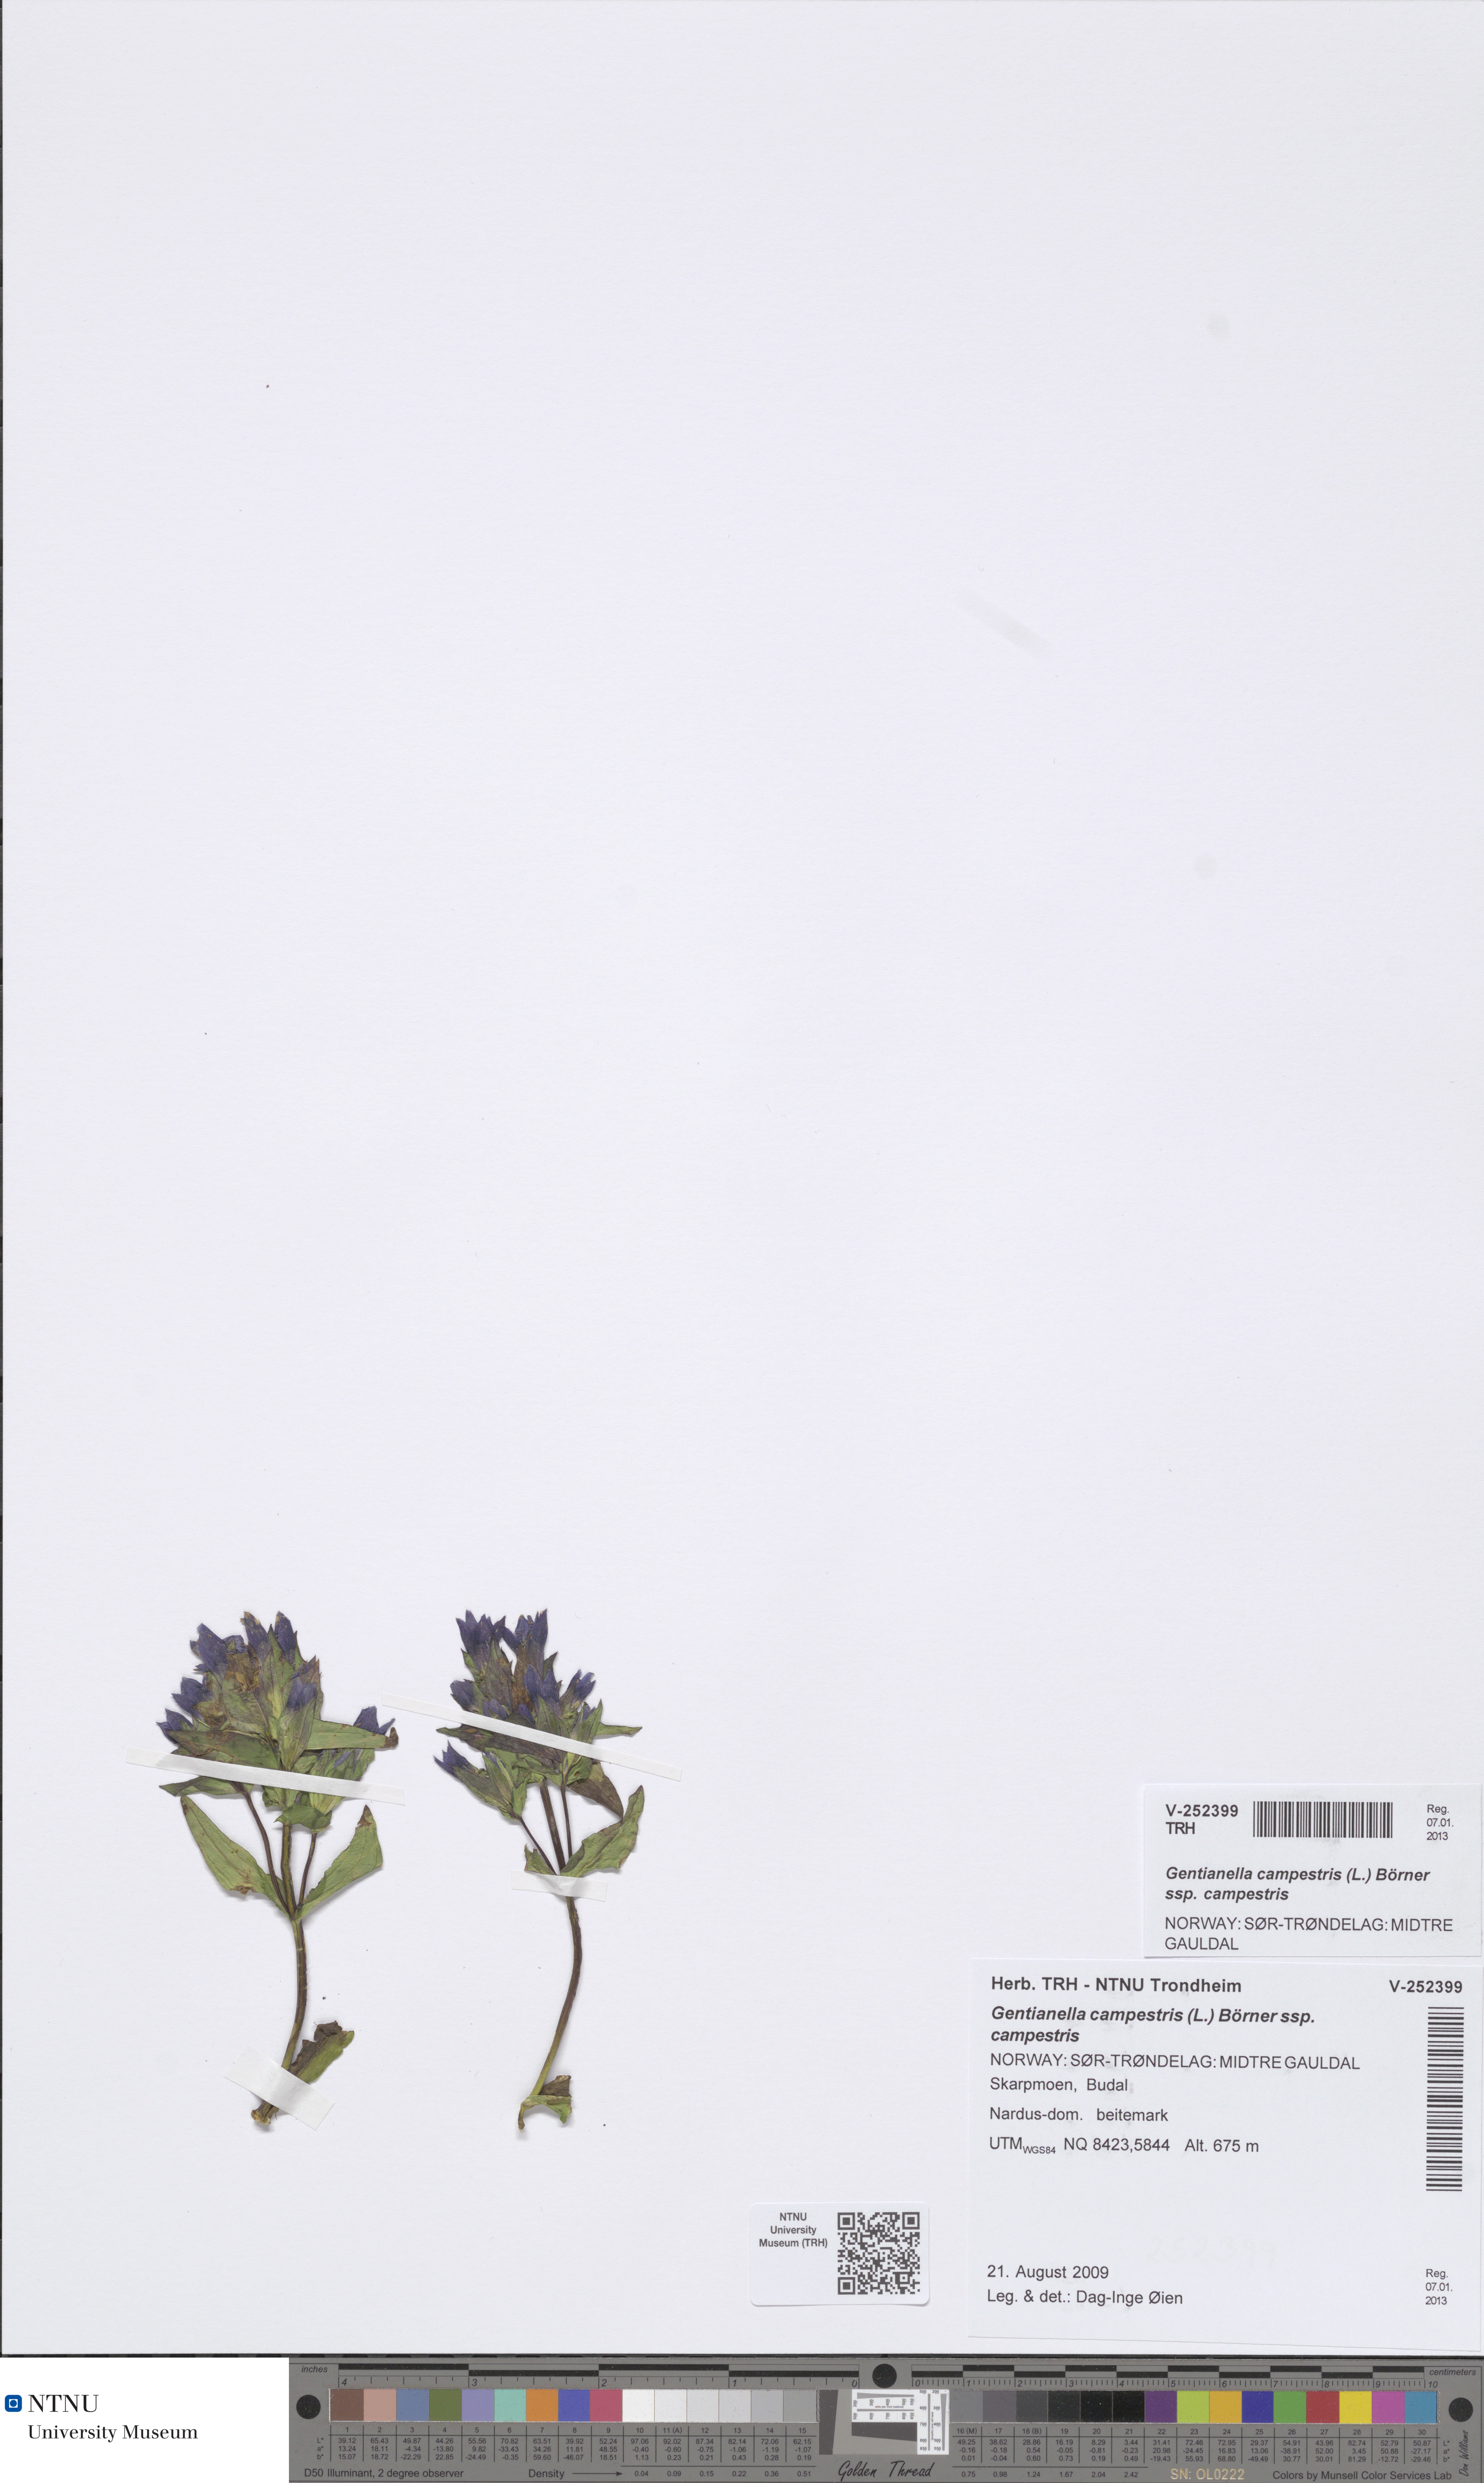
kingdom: Plantae
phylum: Tracheophyta
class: Magnoliopsida
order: Gentianales
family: Gentianaceae
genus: Gentianella
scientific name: Gentianella campestris
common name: Field gentian
